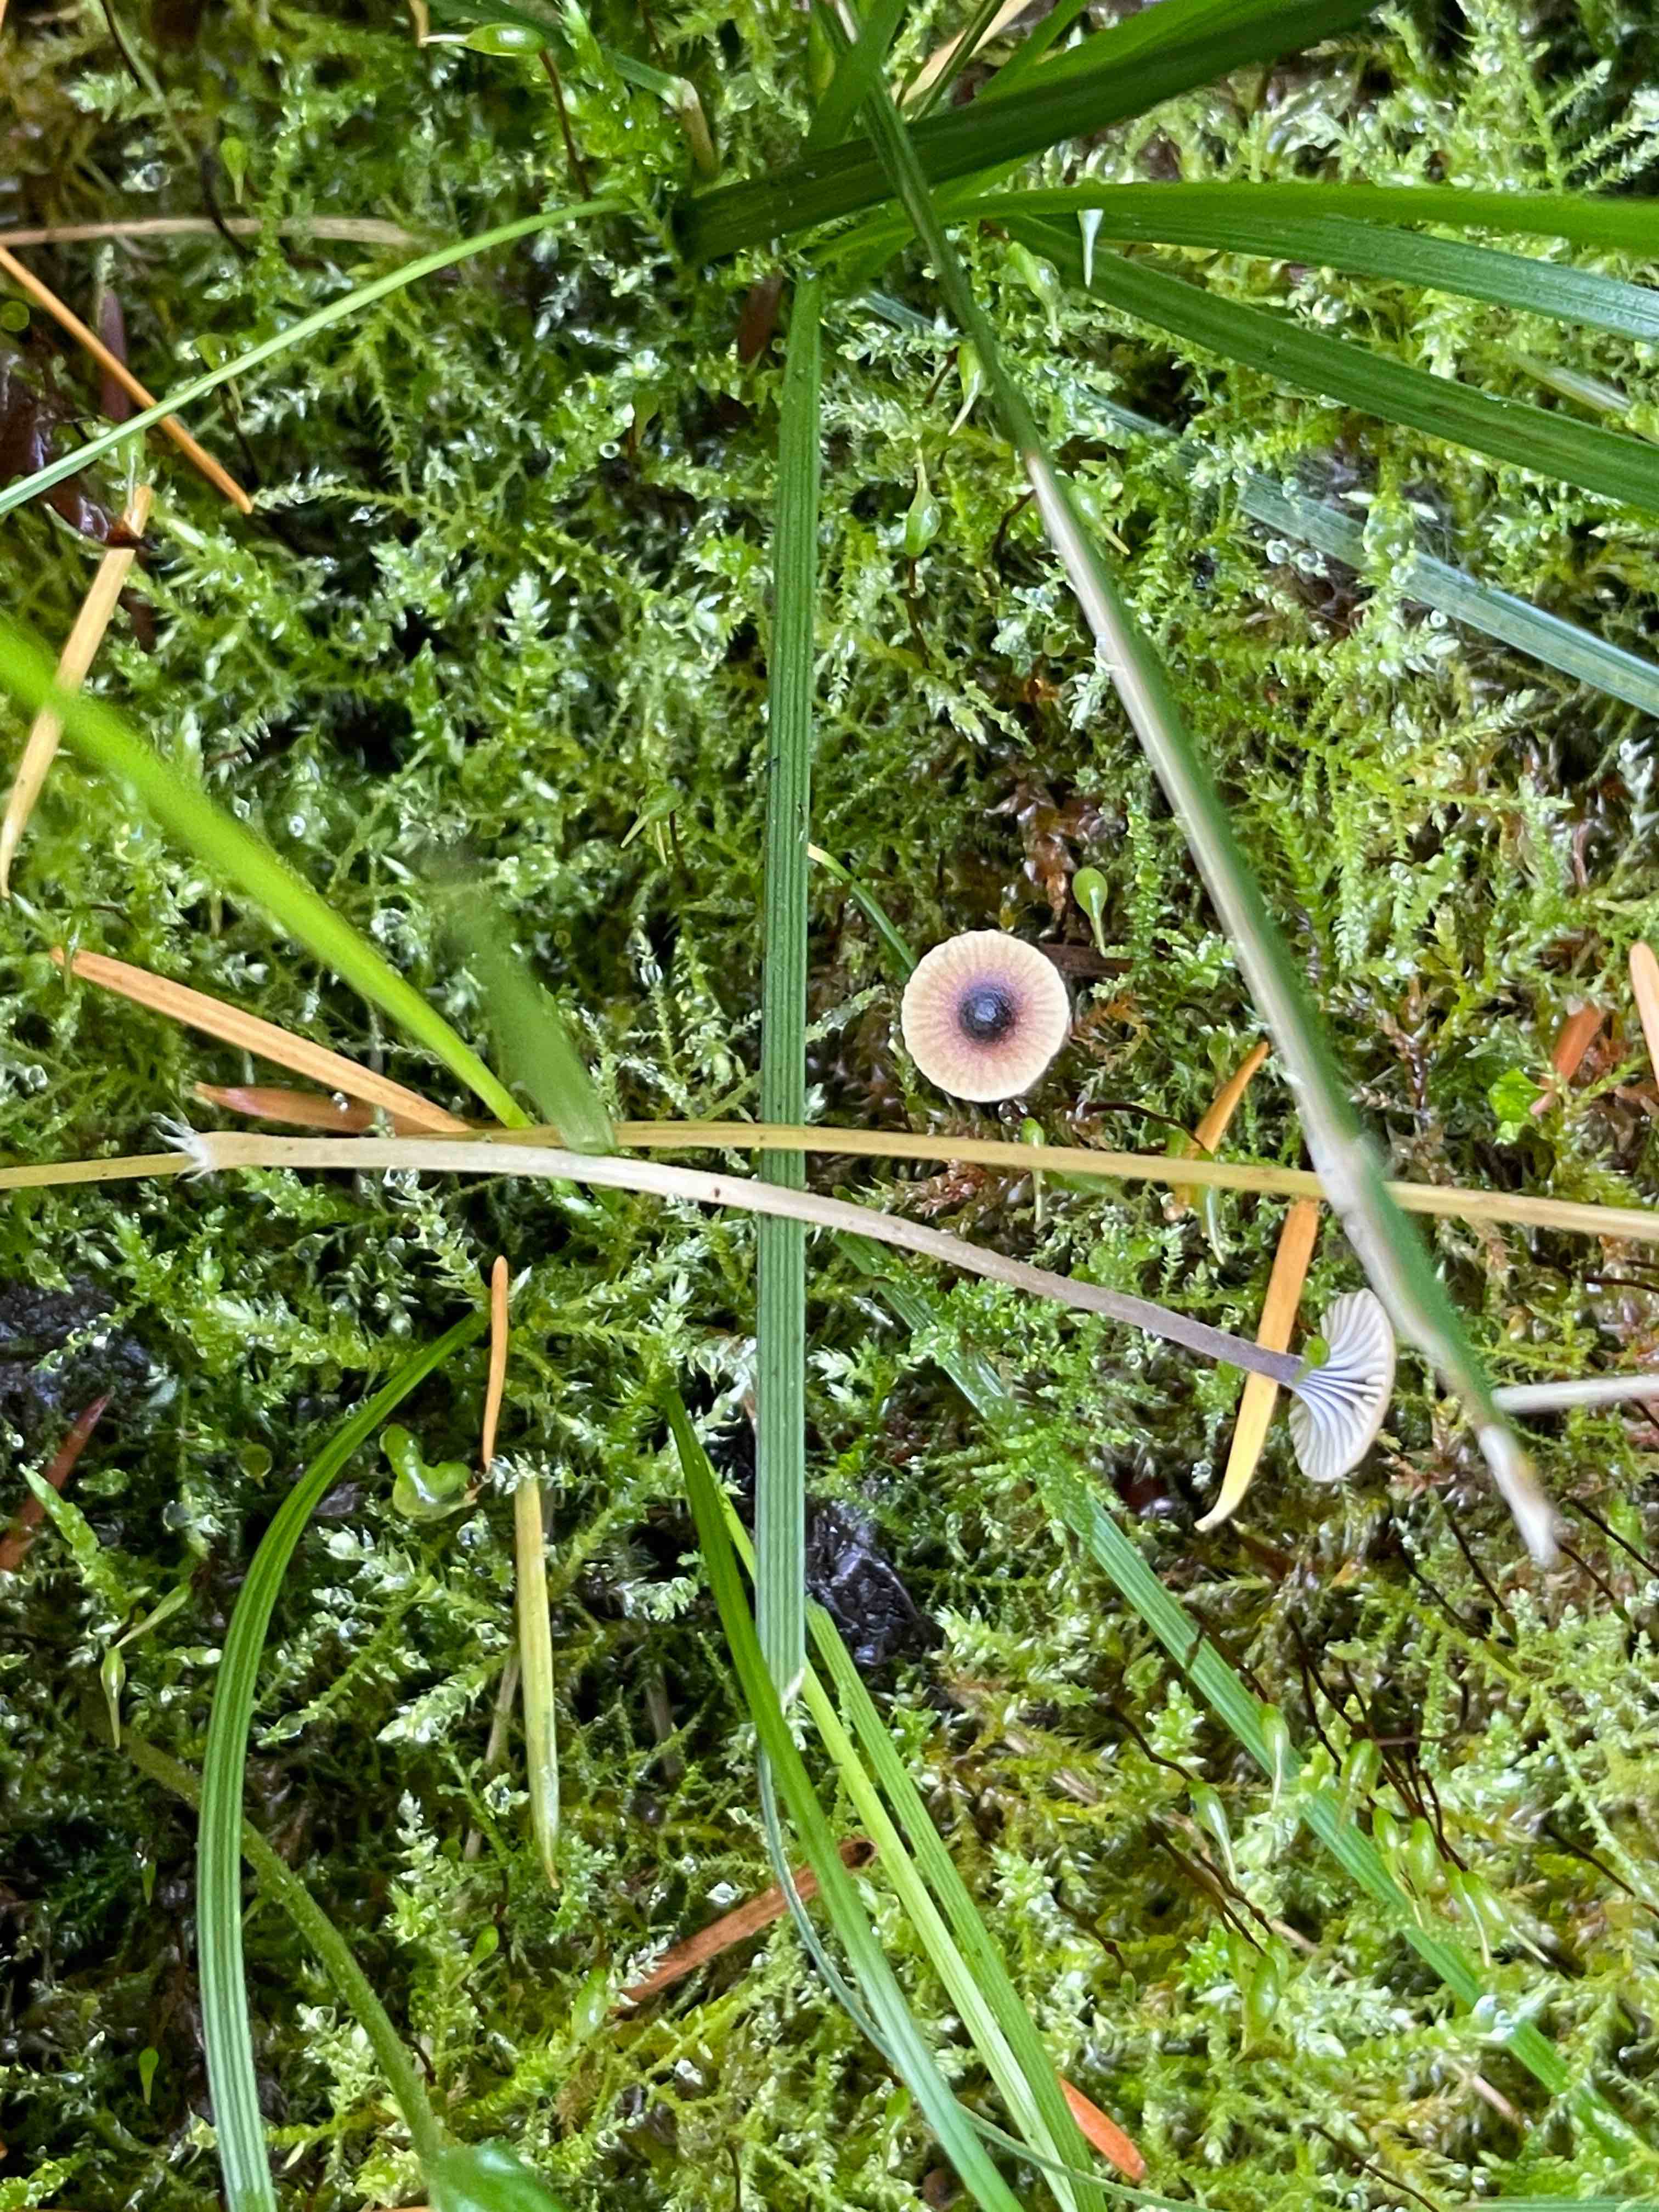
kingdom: Fungi
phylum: Basidiomycota
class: Agaricomycetes
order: Hymenochaetales
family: Rickenellaceae
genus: Rickenella
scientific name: Rickenella swartzii
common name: finstokket mosnavlehat
